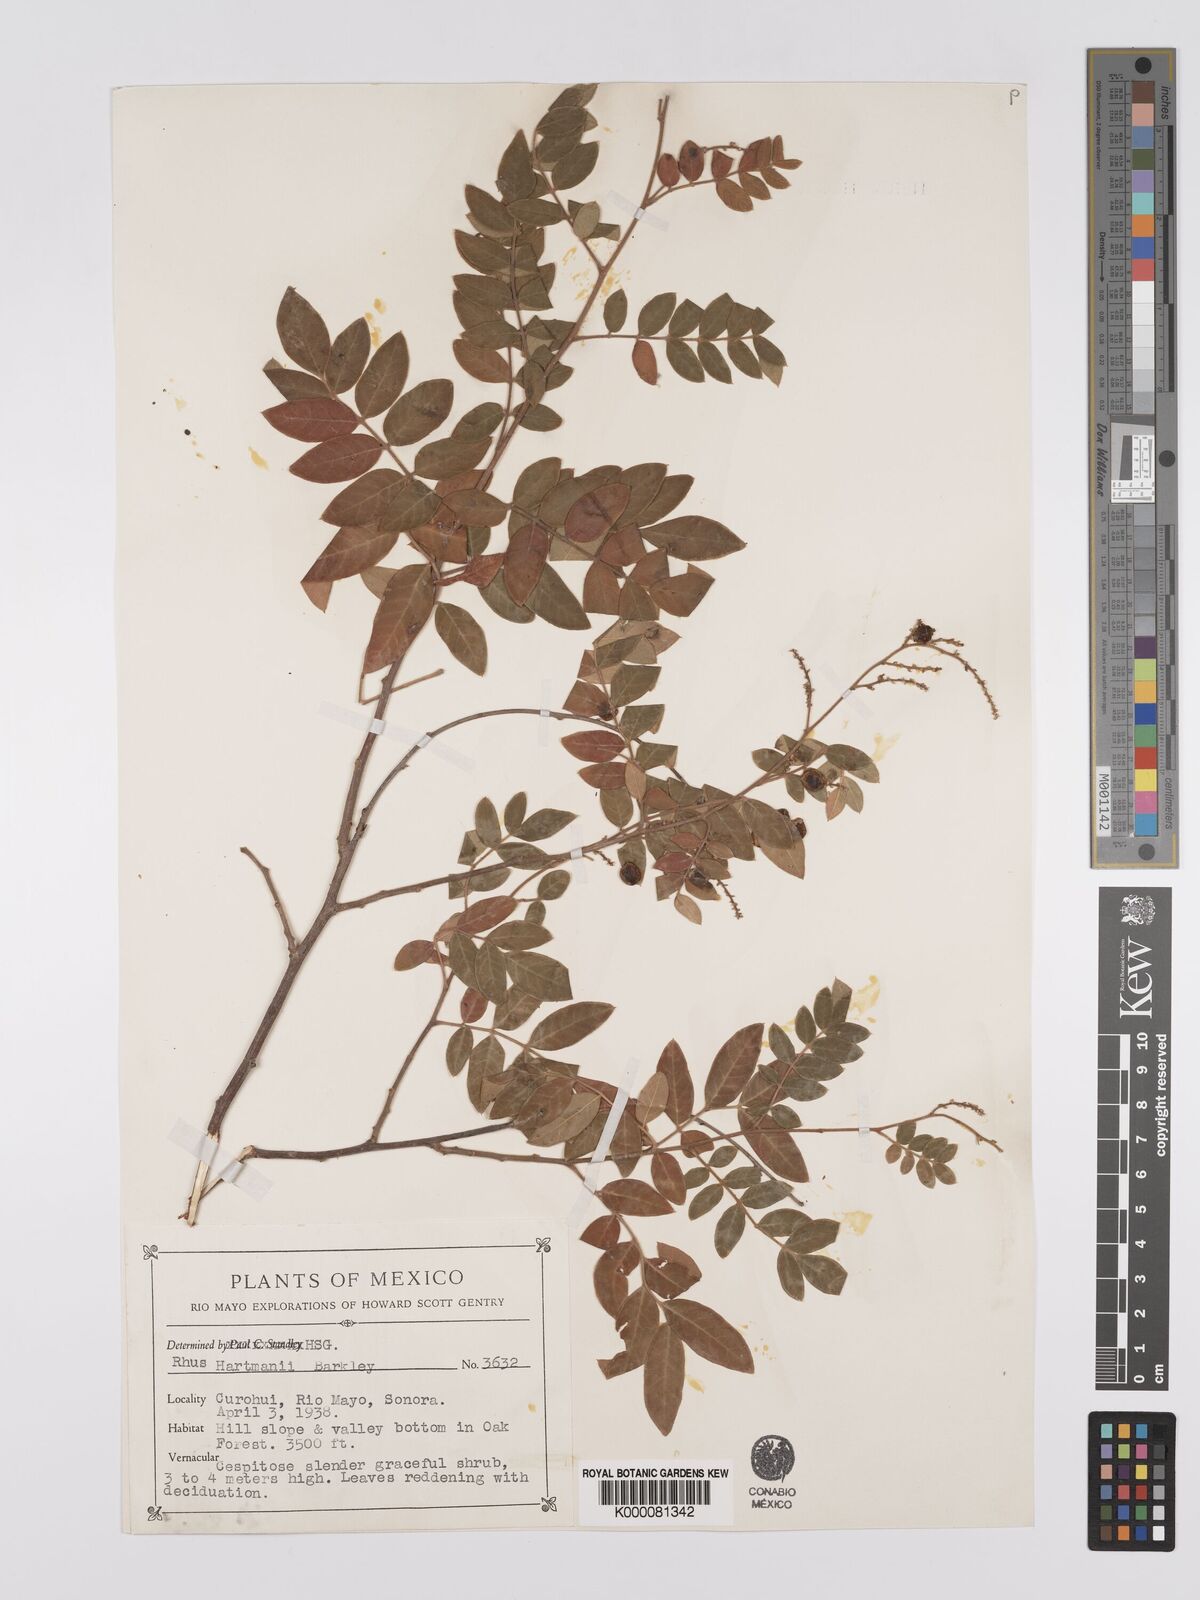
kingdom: Plantae
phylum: Tracheophyta
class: Magnoliopsida
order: Sapindales
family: Anacardiaceae
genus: Rhus
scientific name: Rhus schiedeana
